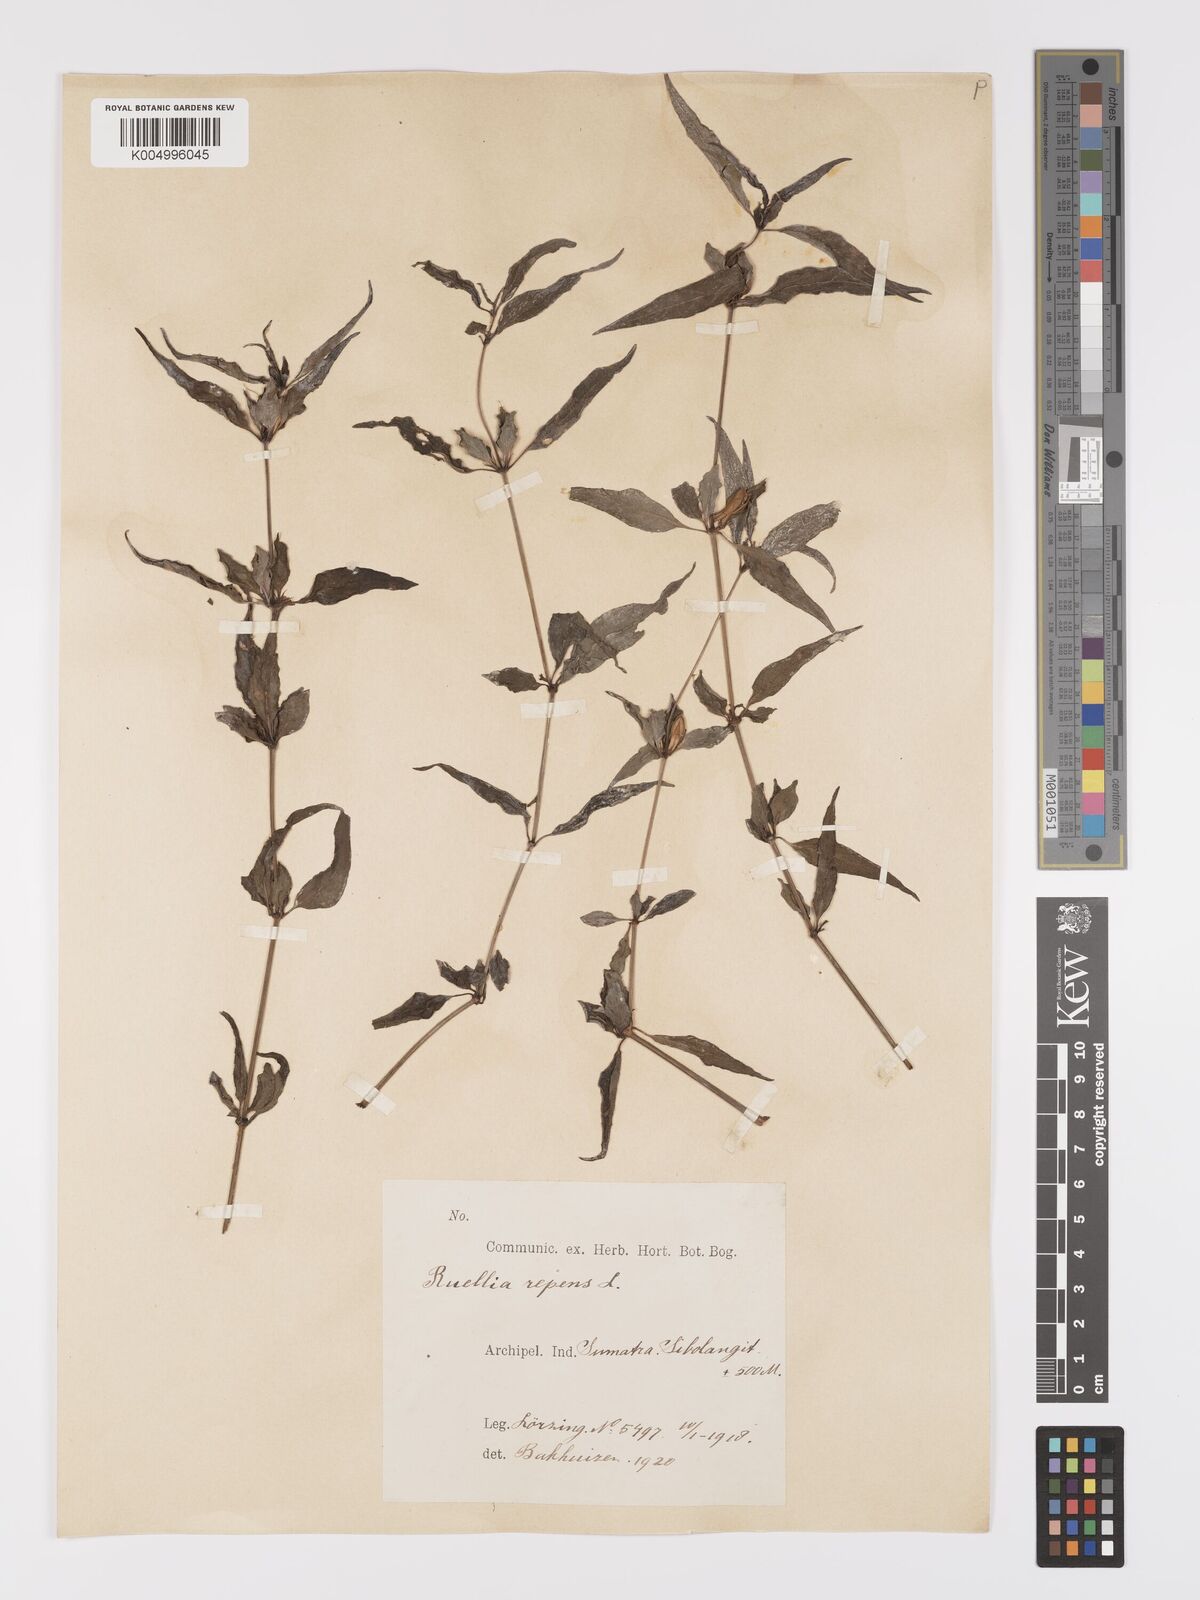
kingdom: Plantae
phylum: Tracheophyta
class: Magnoliopsida
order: Lamiales
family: Acanthaceae
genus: Ruellia
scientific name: Ruellia
